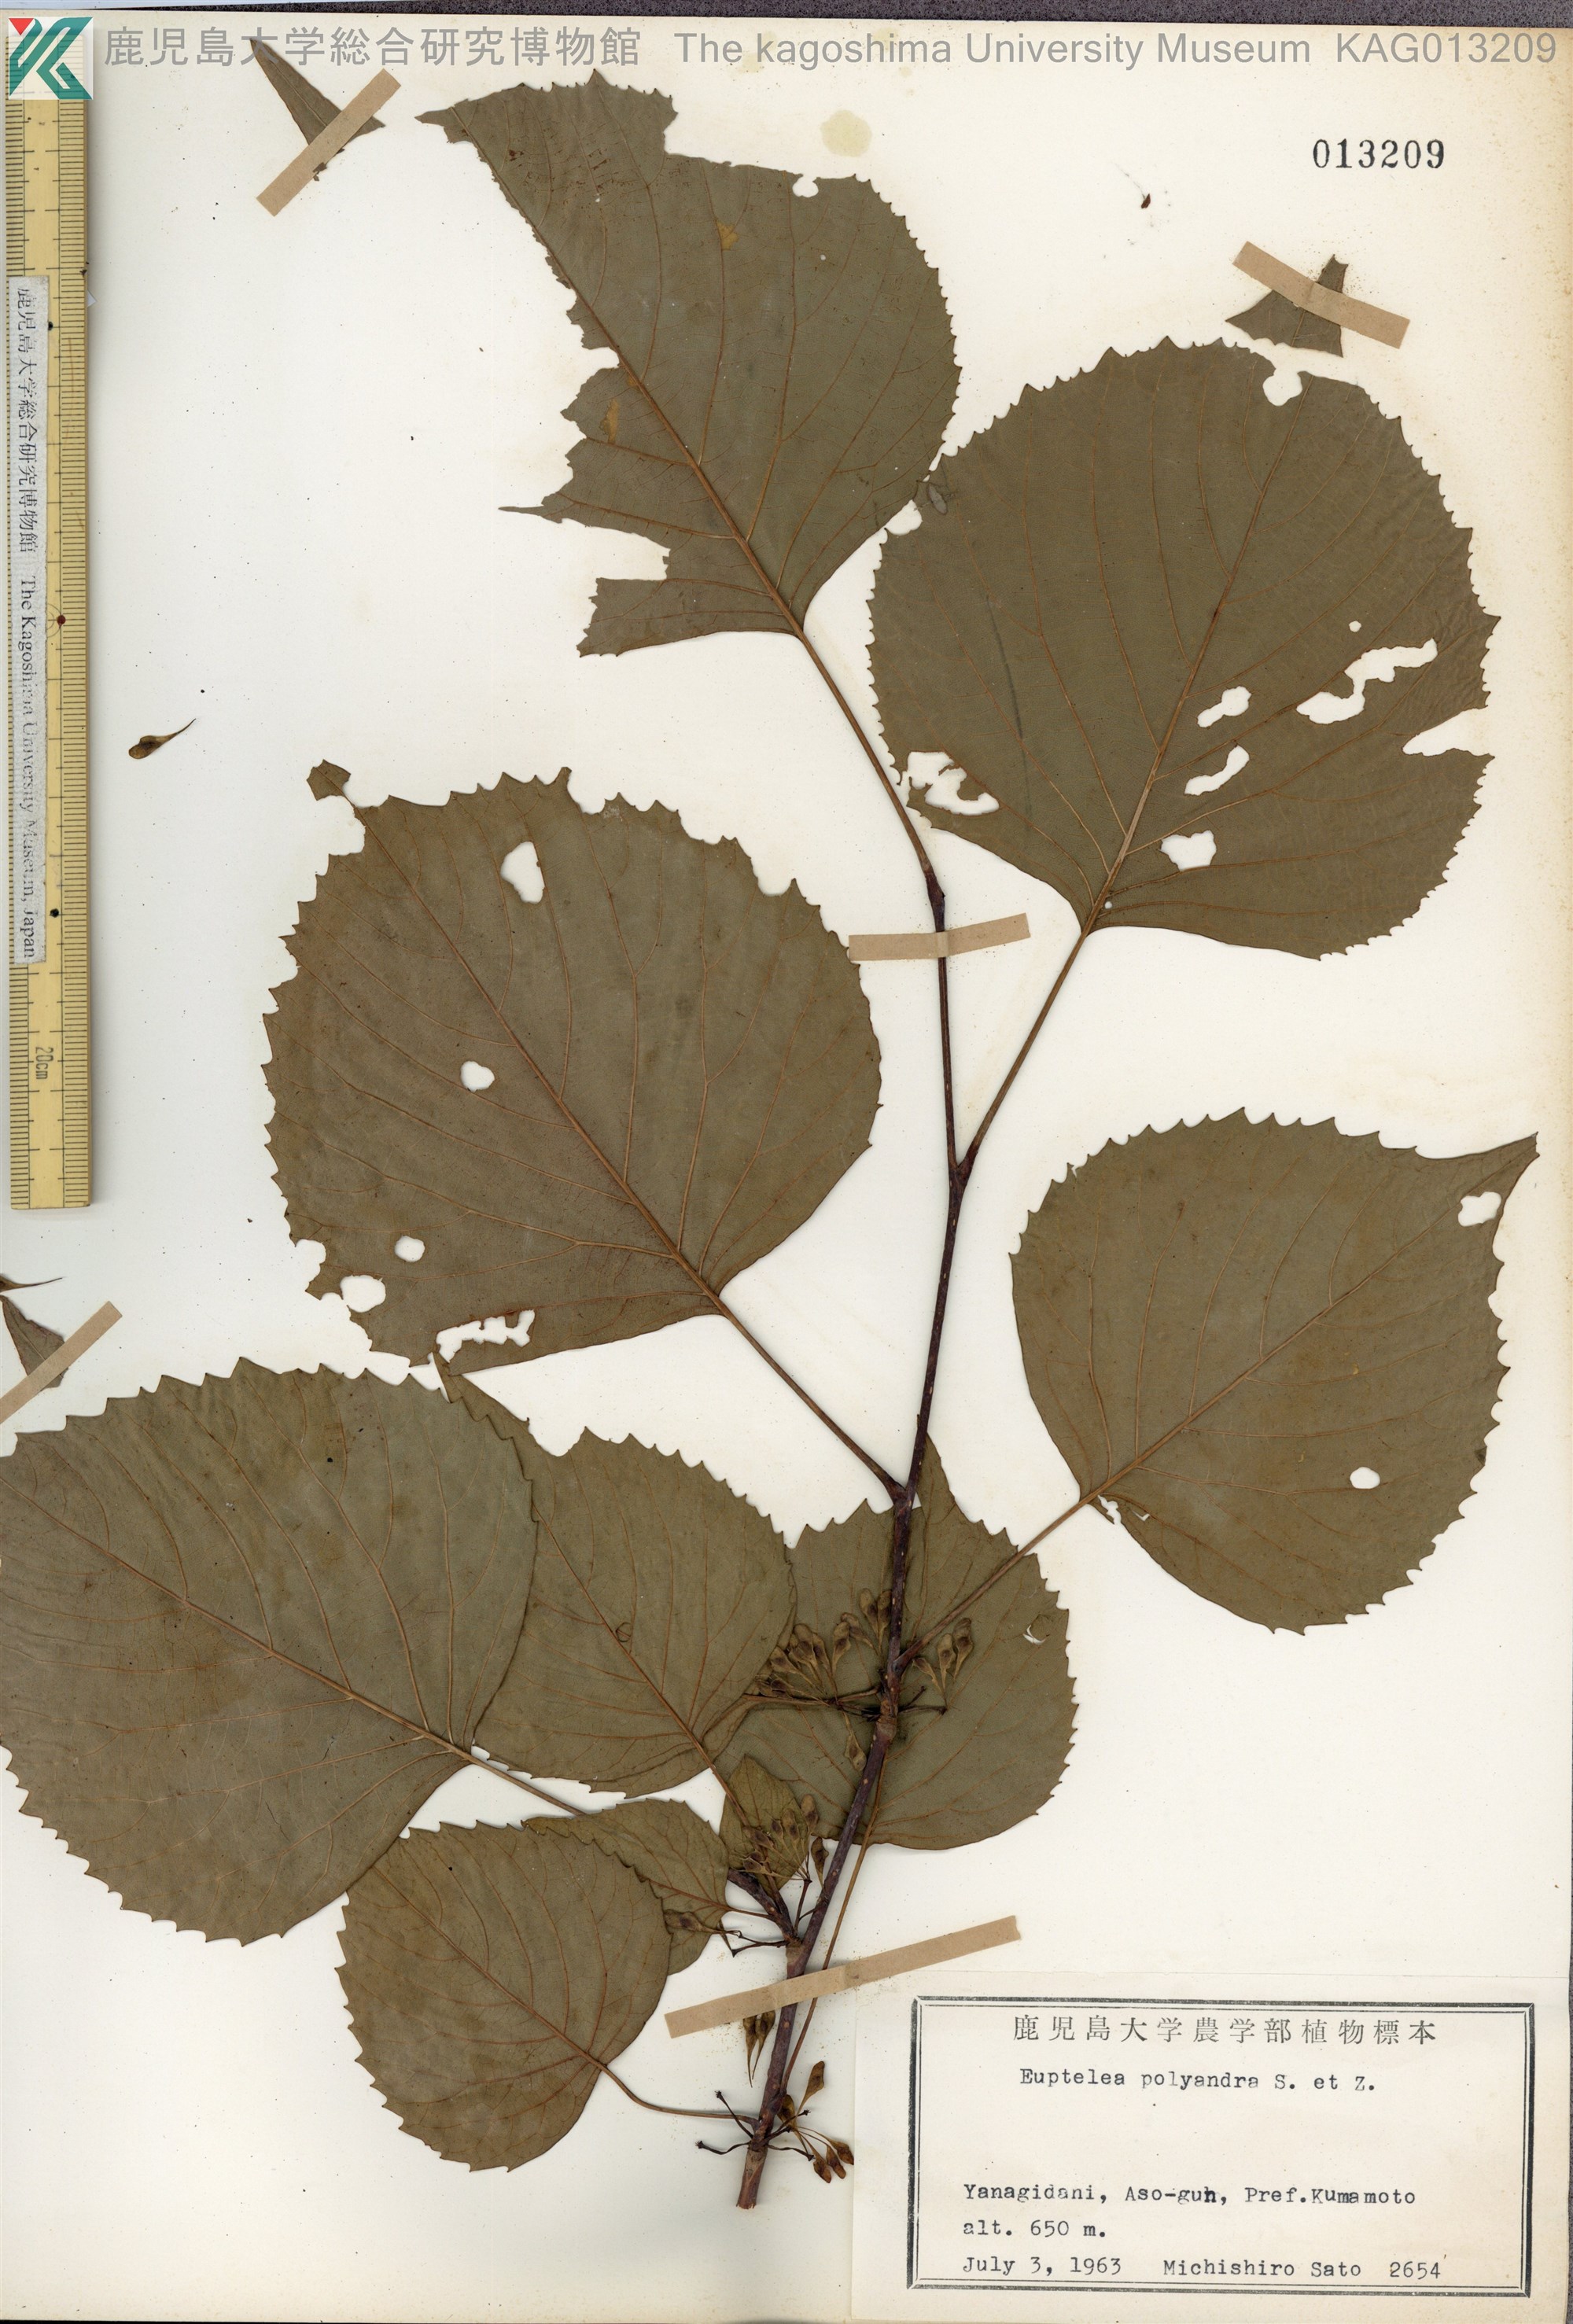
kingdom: Plantae
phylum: Tracheophyta
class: Magnoliopsida
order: Ranunculales
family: Eupteleaceae
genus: Euptelea
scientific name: Euptelea polyandra
